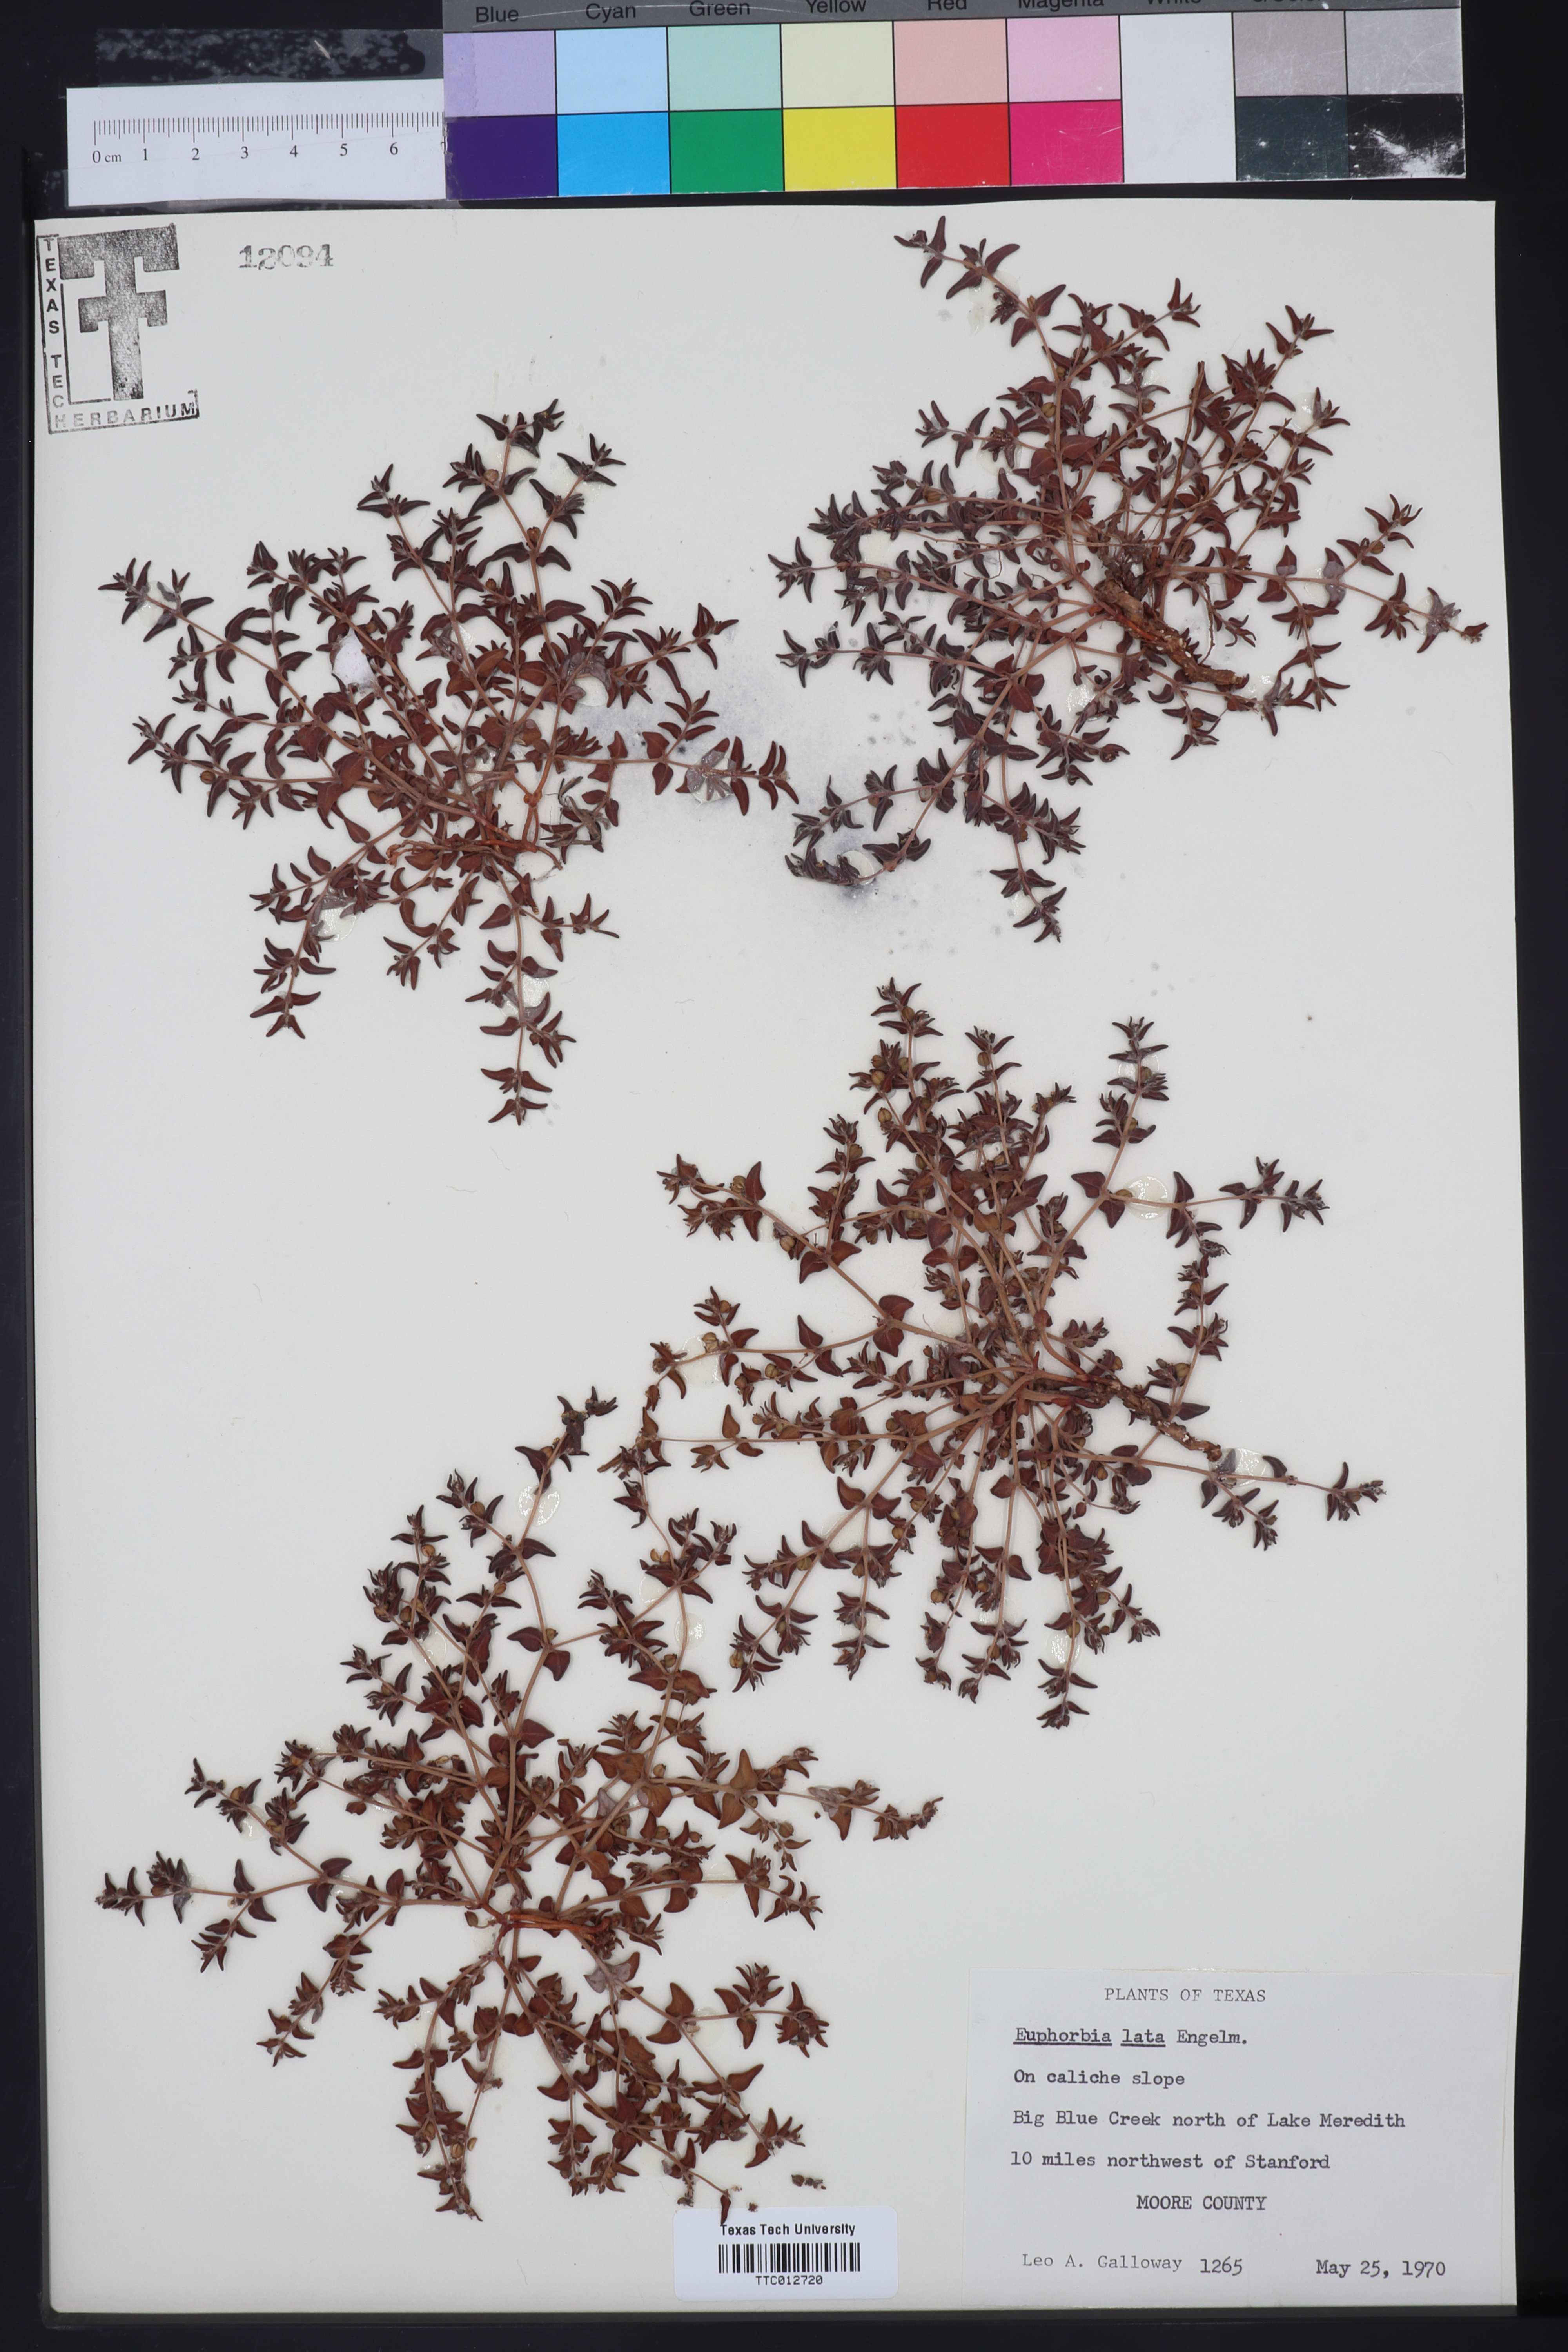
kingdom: Plantae
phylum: Tracheophyta
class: Magnoliopsida
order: Malpighiales
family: Euphorbiaceae
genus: Euphorbia
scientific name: Euphorbia lata
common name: Hoary euphorbia
